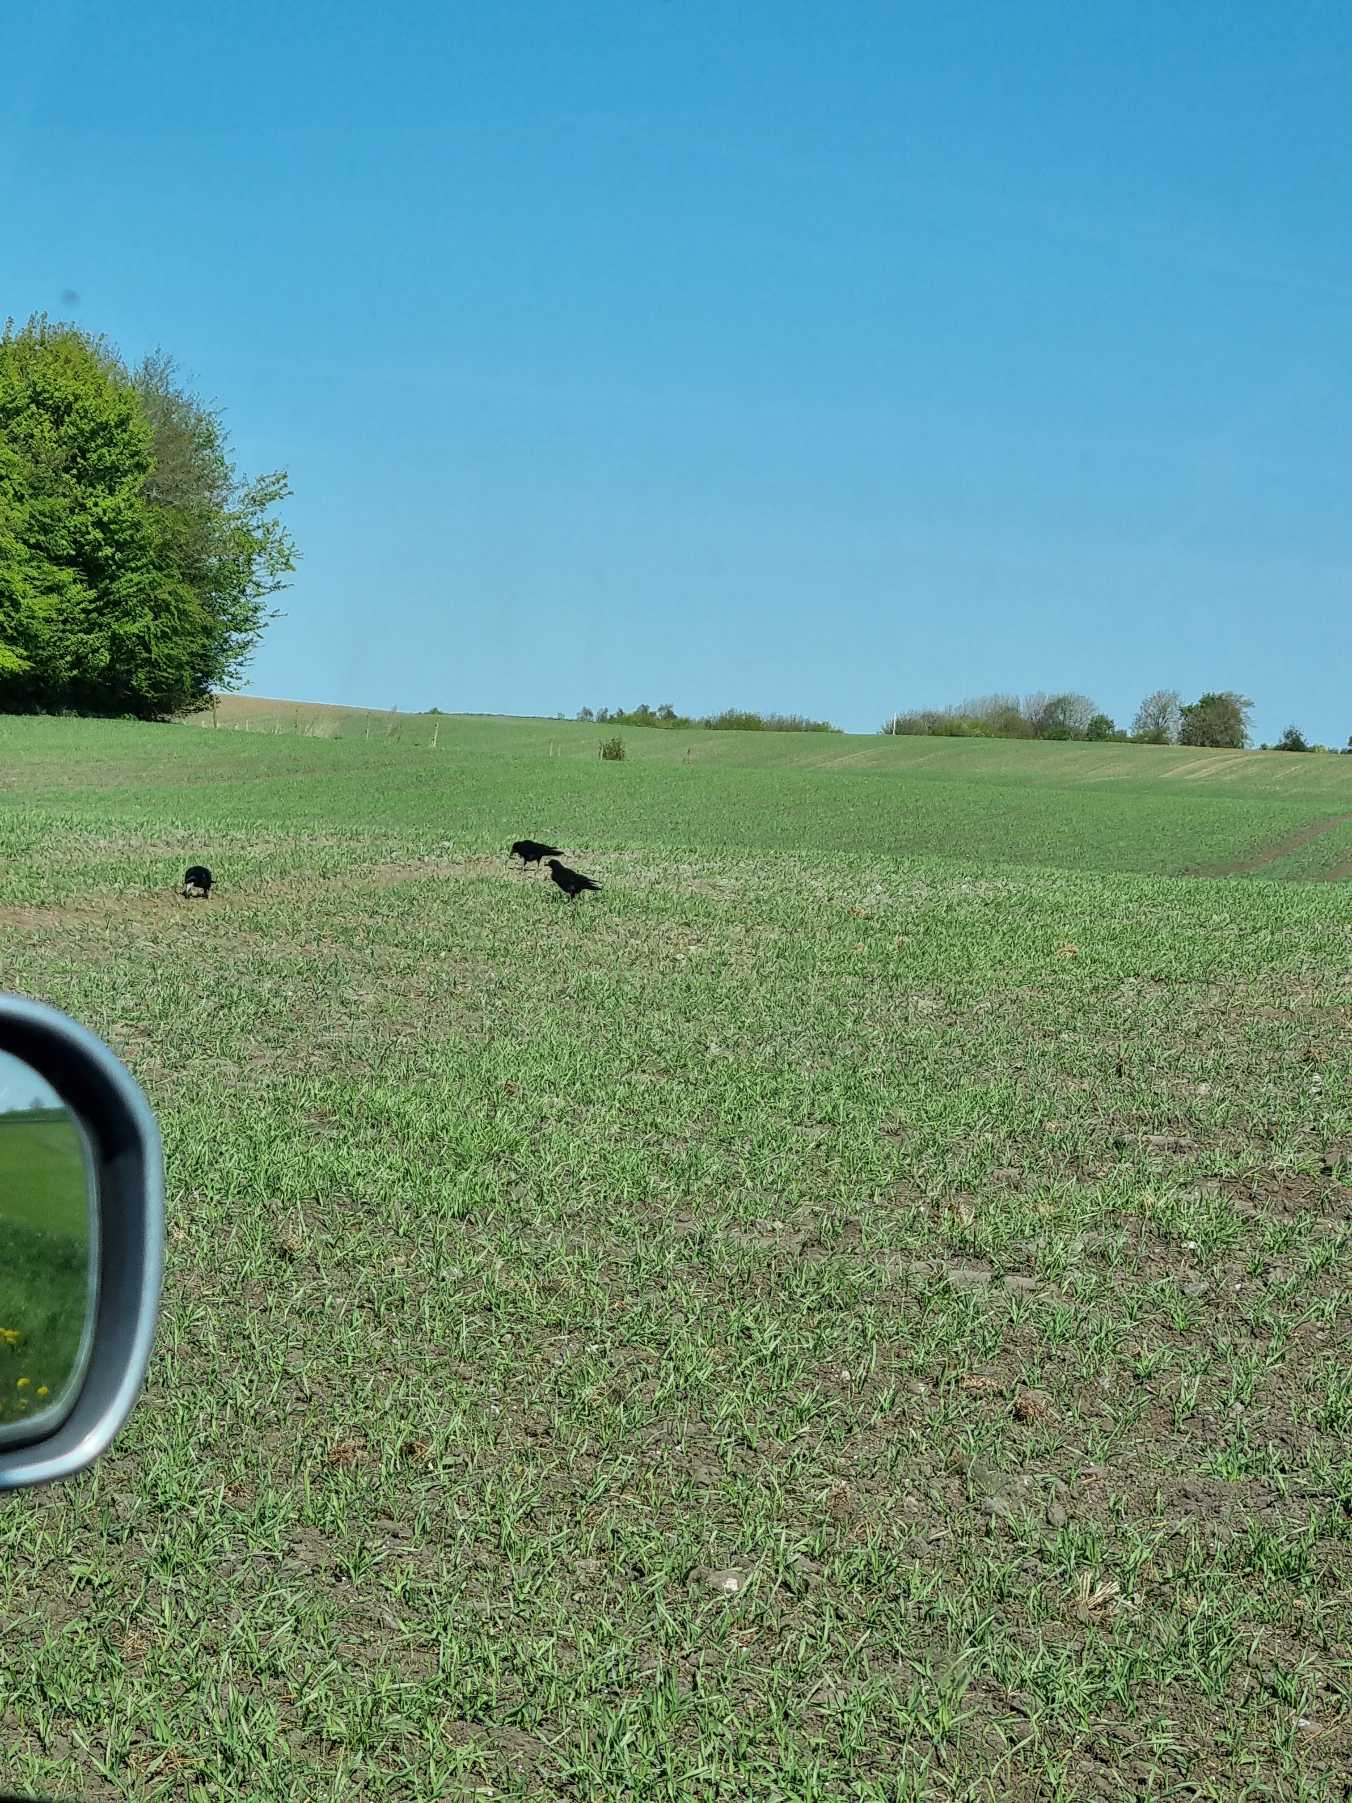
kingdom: Animalia
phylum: Chordata
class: Aves
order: Passeriformes
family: Corvidae
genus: Corvus
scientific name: Corvus frugilegus
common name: Råge
